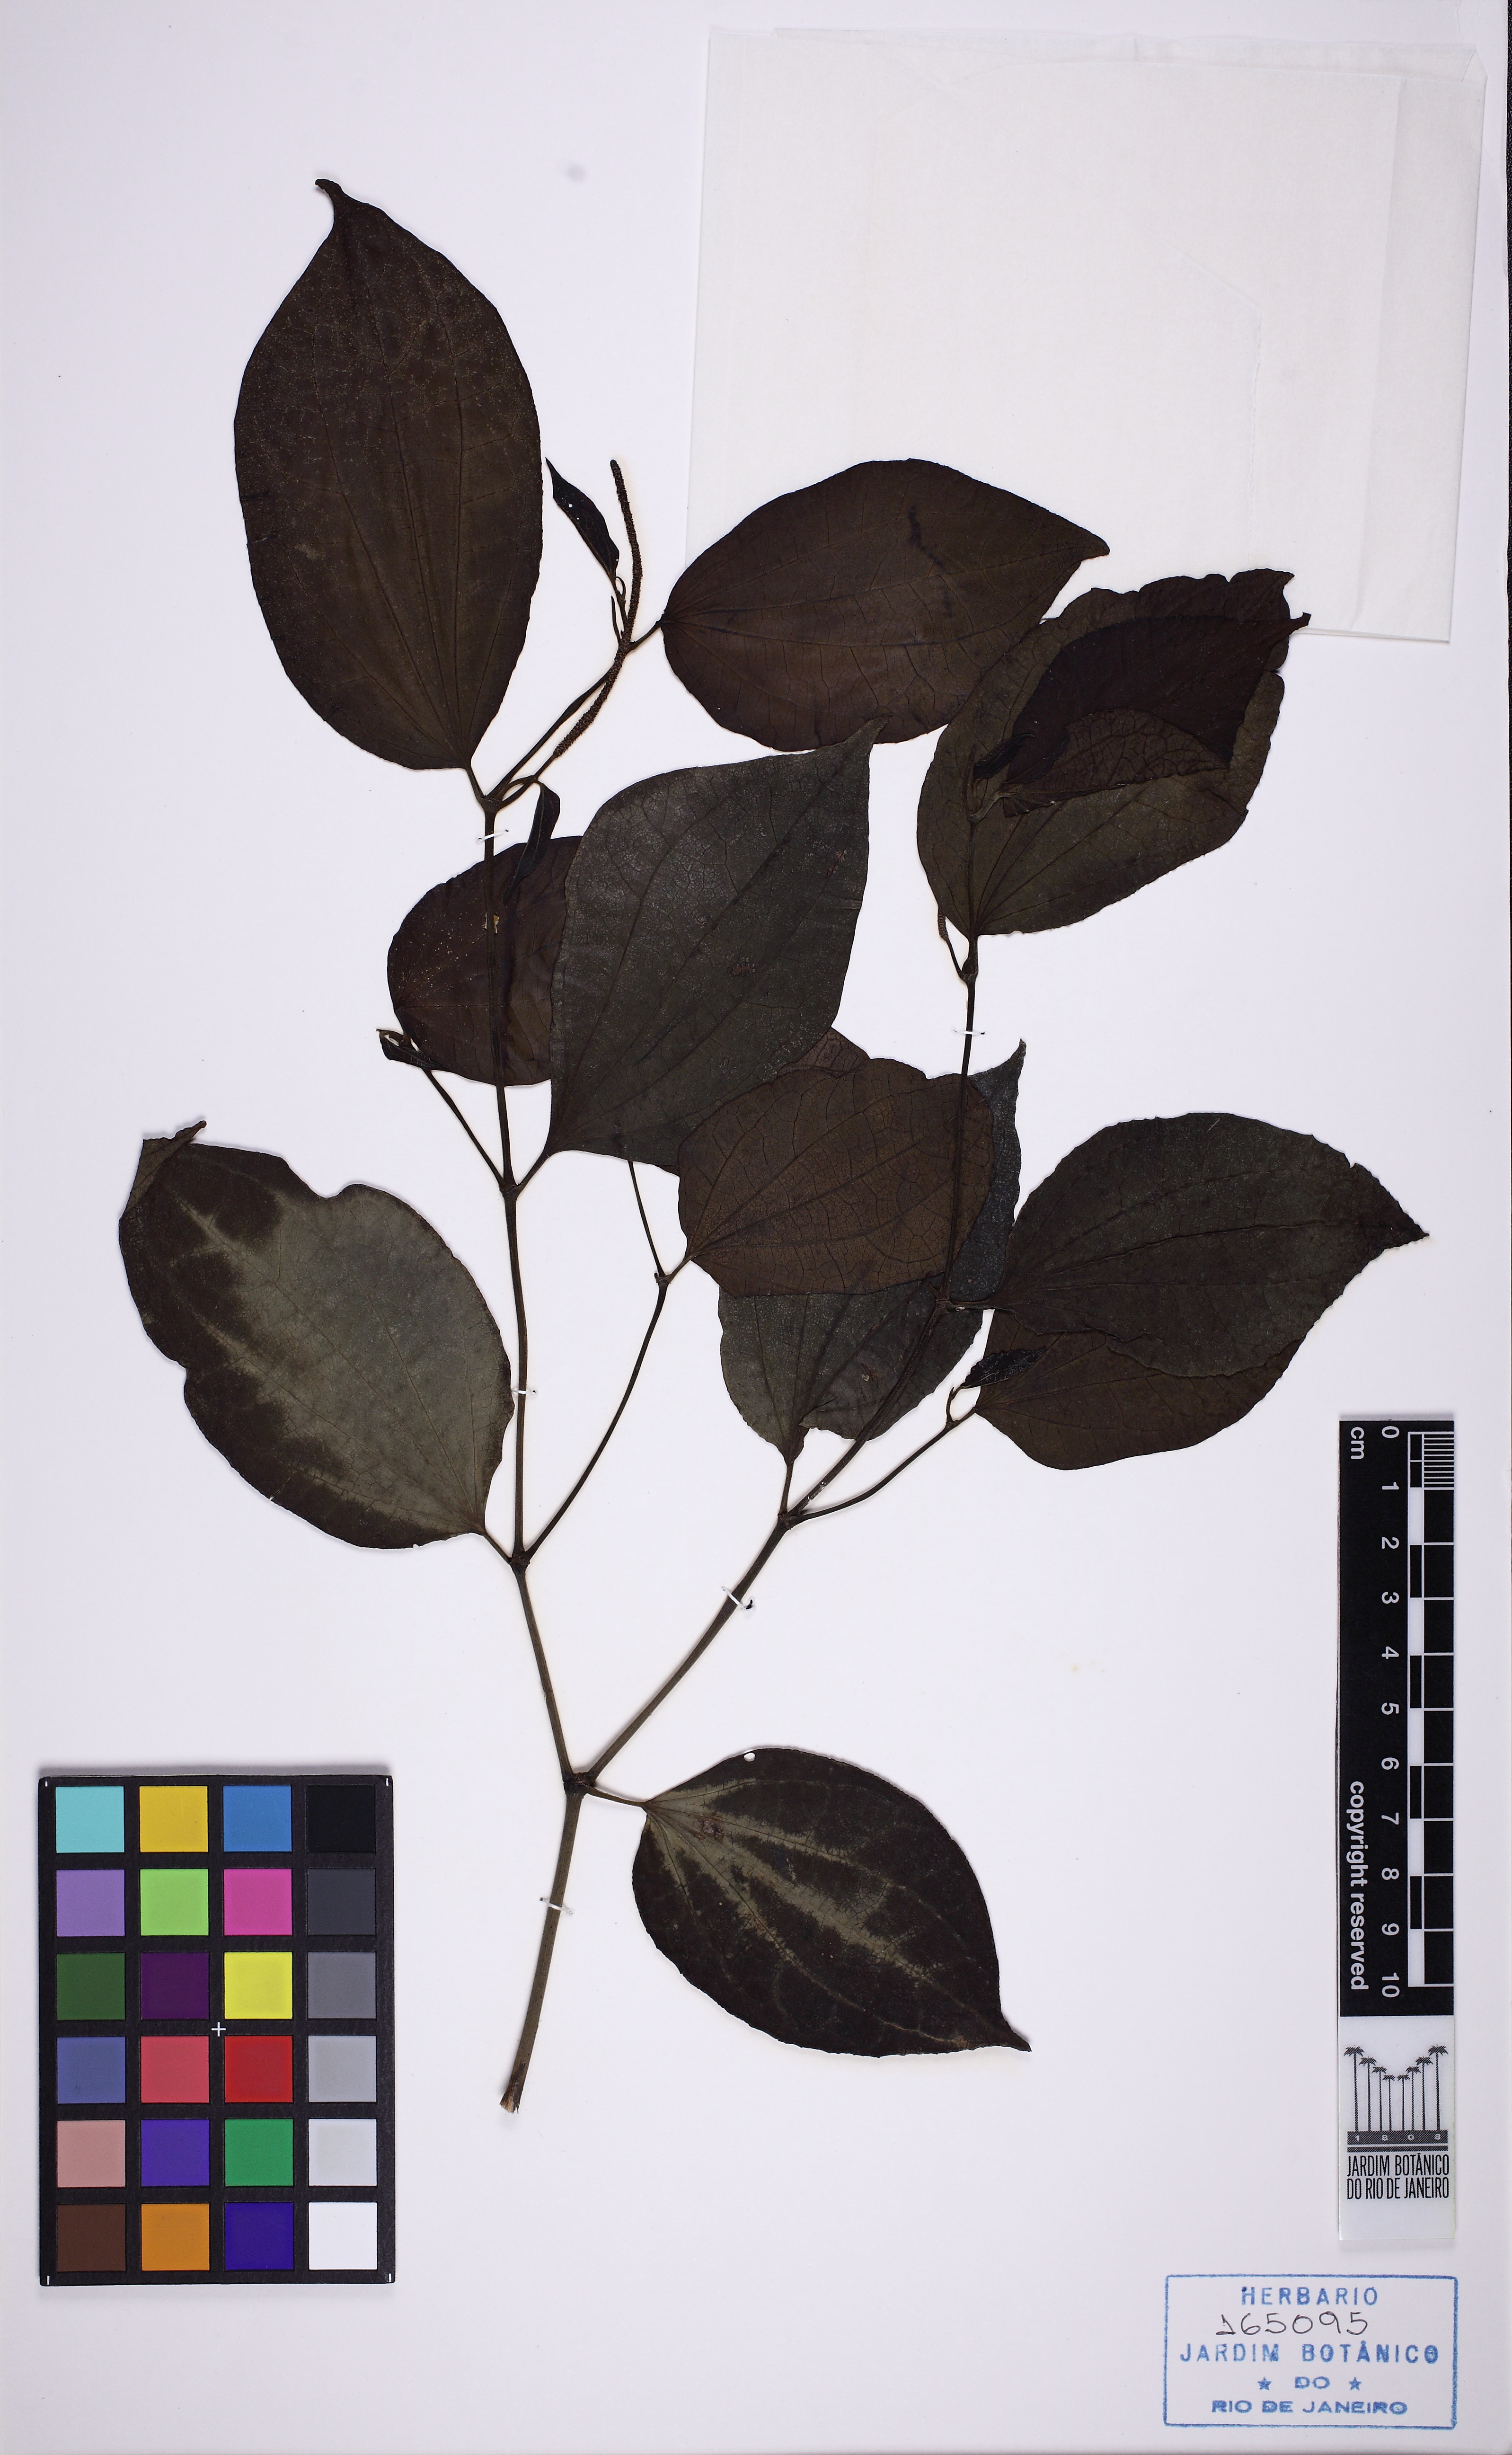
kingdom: Plantae
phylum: Tracheophyta
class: Magnoliopsida
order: Piperales
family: Piperaceae
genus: Piper
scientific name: Piper amalago
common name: Pepper-elder
